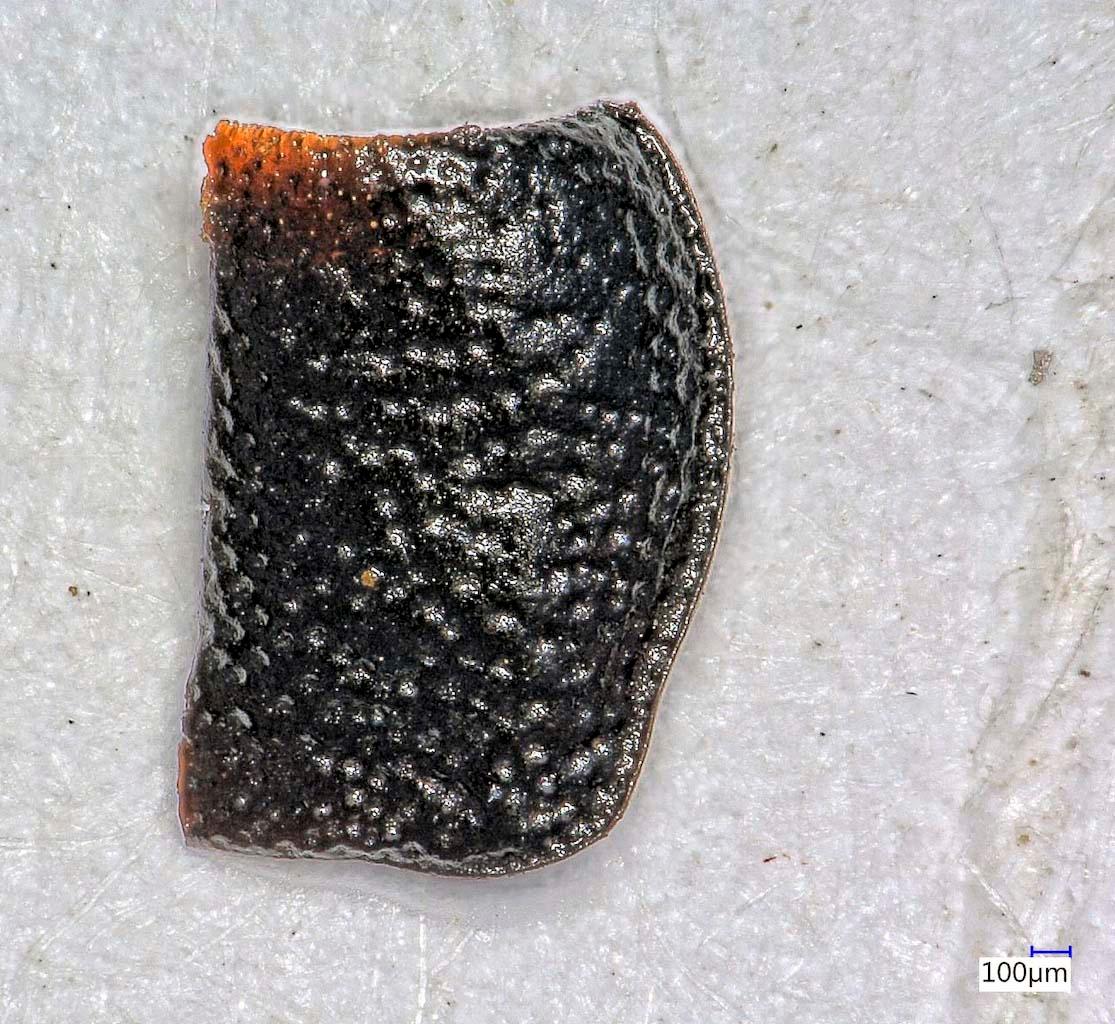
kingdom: Animalia
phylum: Arthropoda
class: Insecta
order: Coleoptera
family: Carabidae
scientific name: Carabidae
